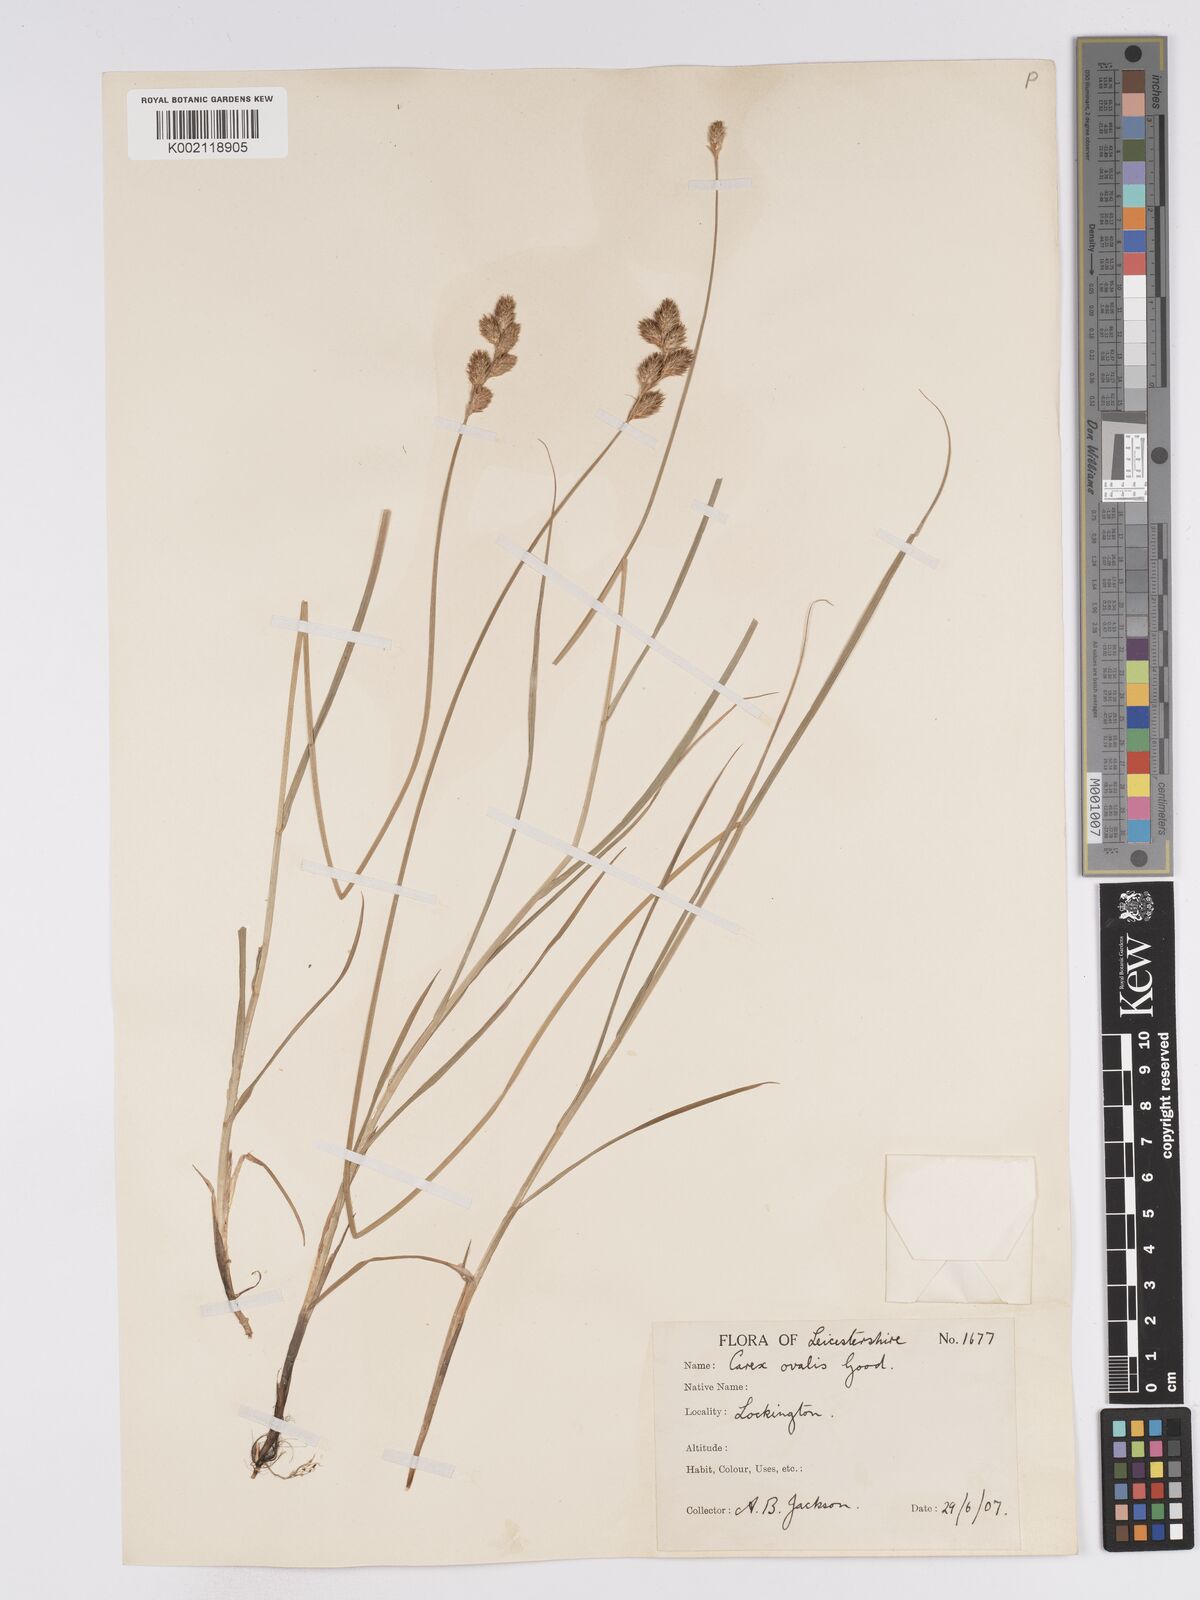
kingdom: Plantae
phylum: Tracheophyta
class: Liliopsida
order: Poales
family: Cyperaceae
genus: Carex
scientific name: Carex leporina
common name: Oval sedge
